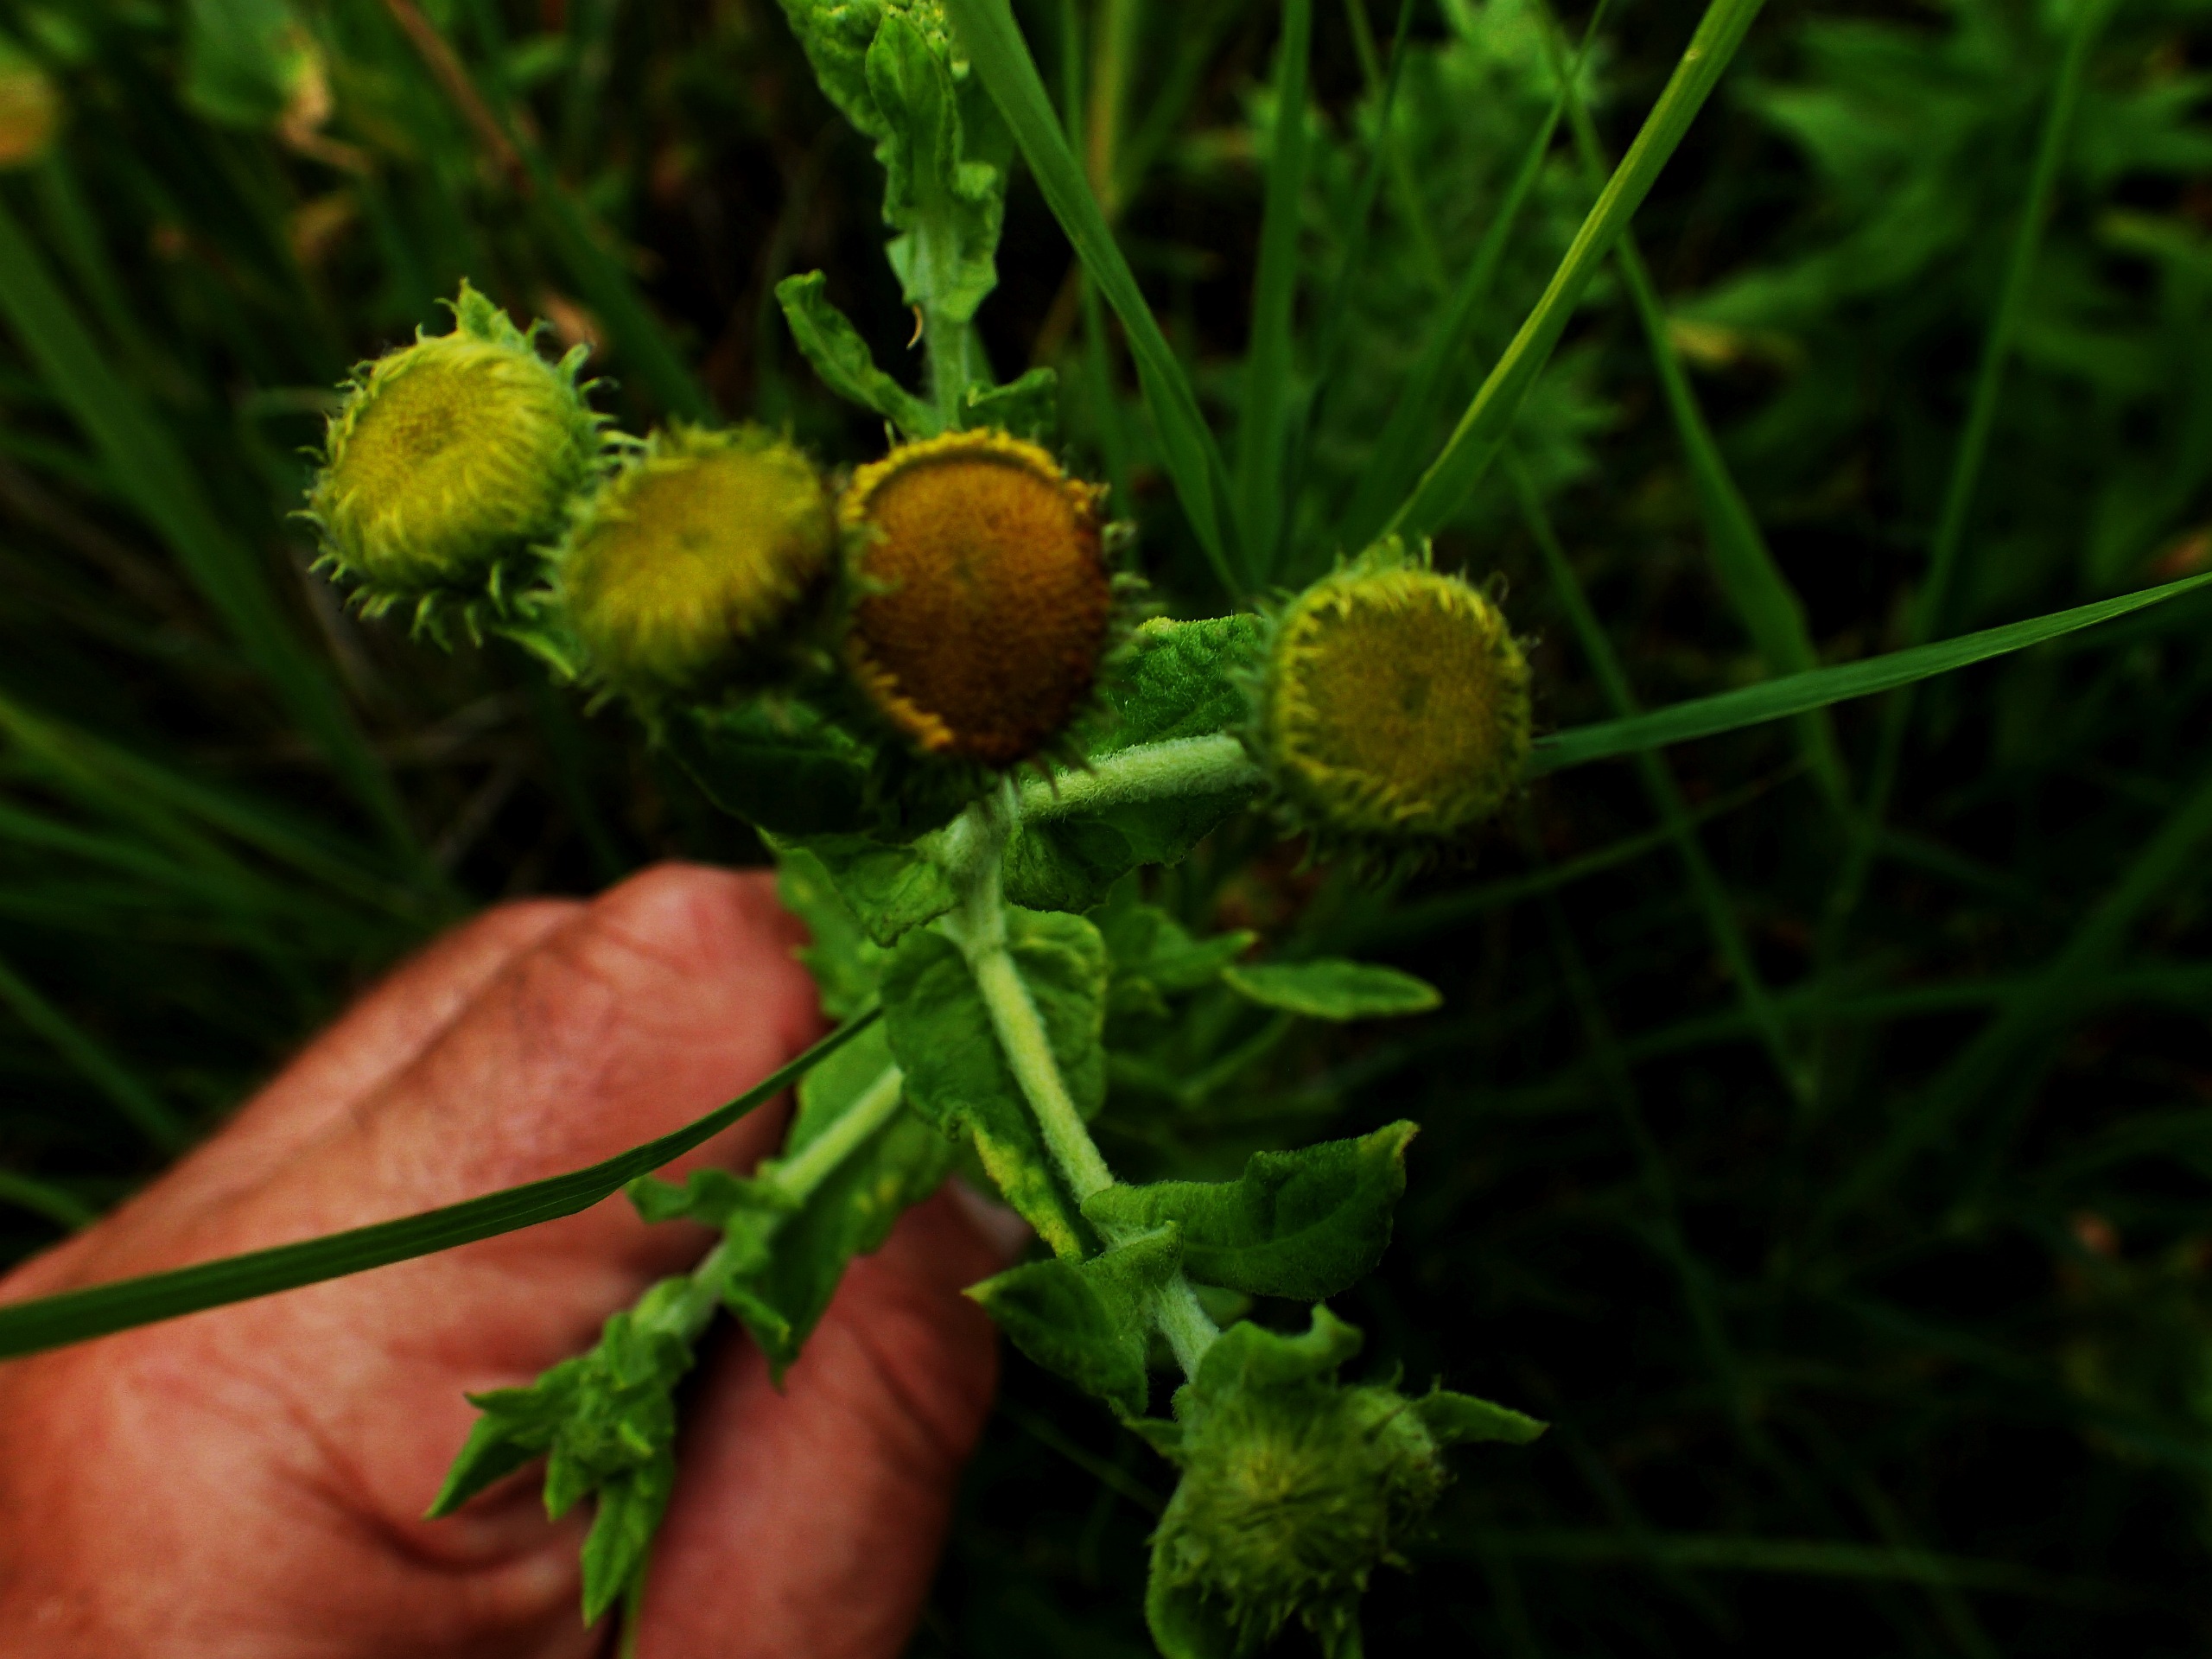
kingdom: Plantae
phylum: Tracheophyta
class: Magnoliopsida
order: Asterales
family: Asteraceae
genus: Pulicaria
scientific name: Pulicaria dysenterica
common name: Strand-loppeurt
